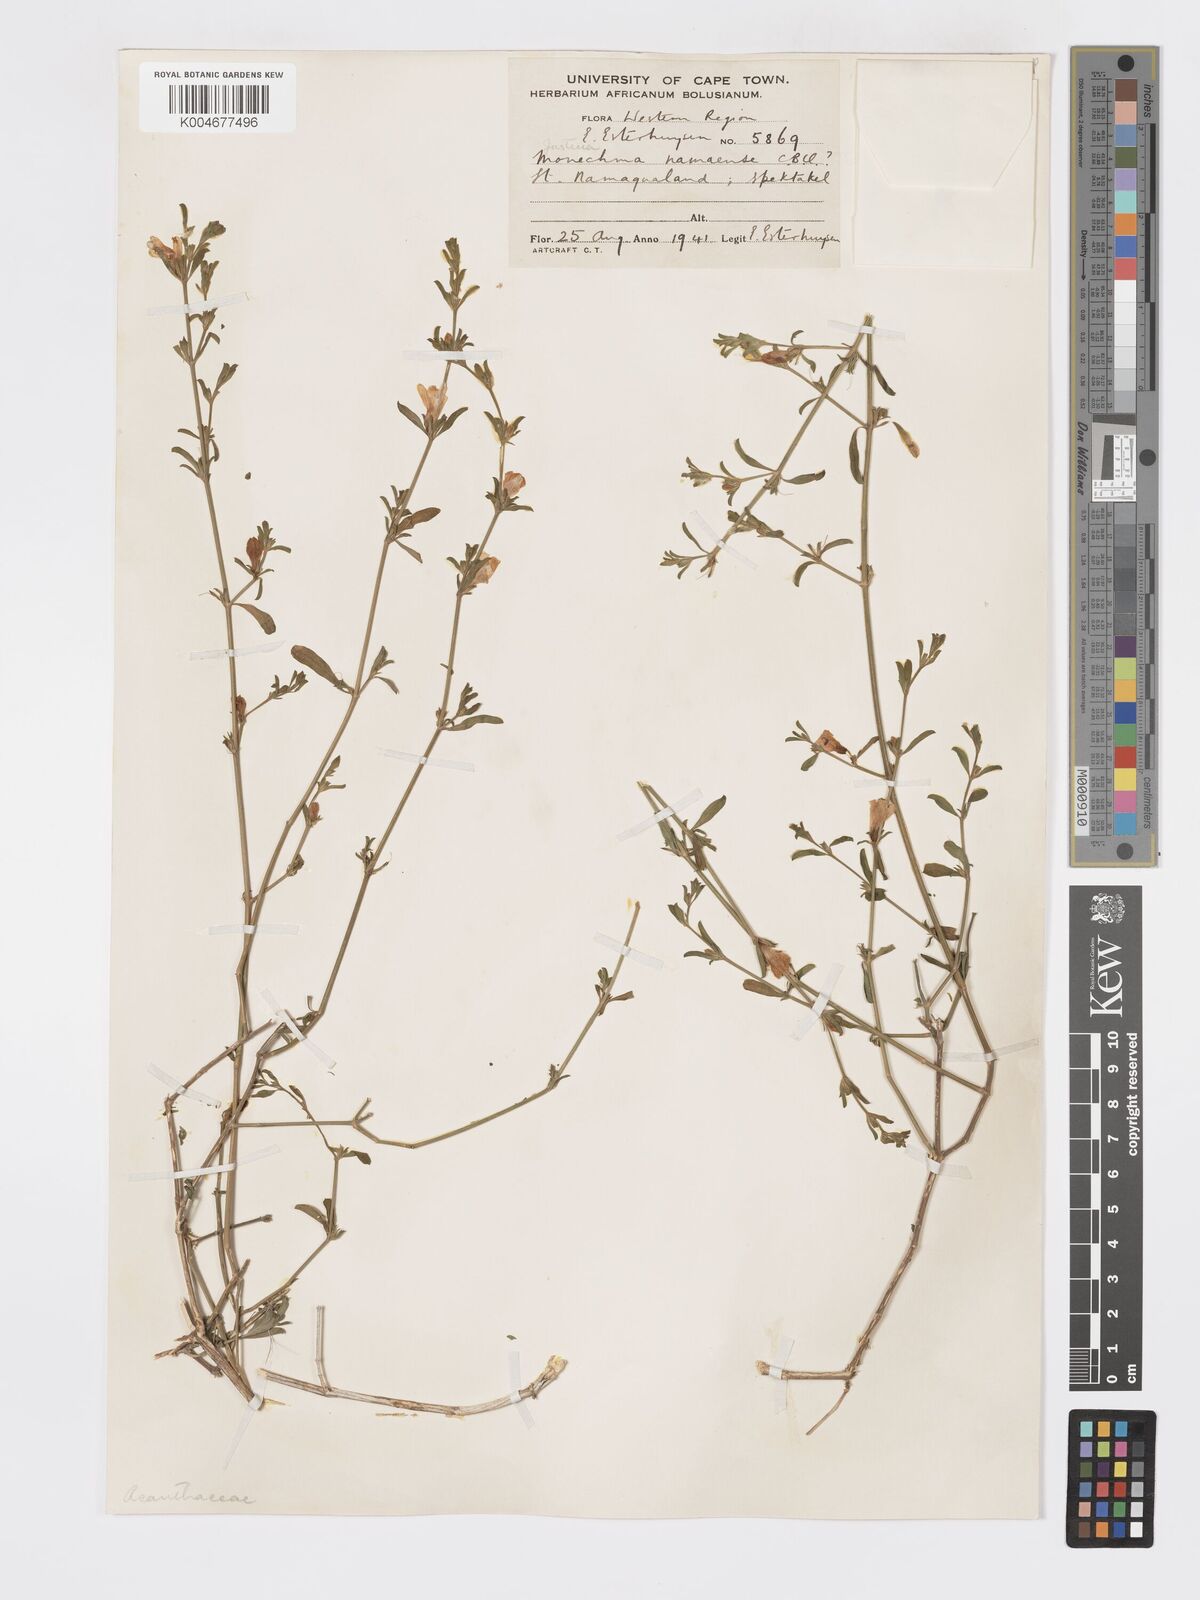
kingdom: Plantae
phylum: Tracheophyta
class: Magnoliopsida
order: Lamiales
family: Acanthaceae
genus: Pogonospermum
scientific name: Pogonospermum
